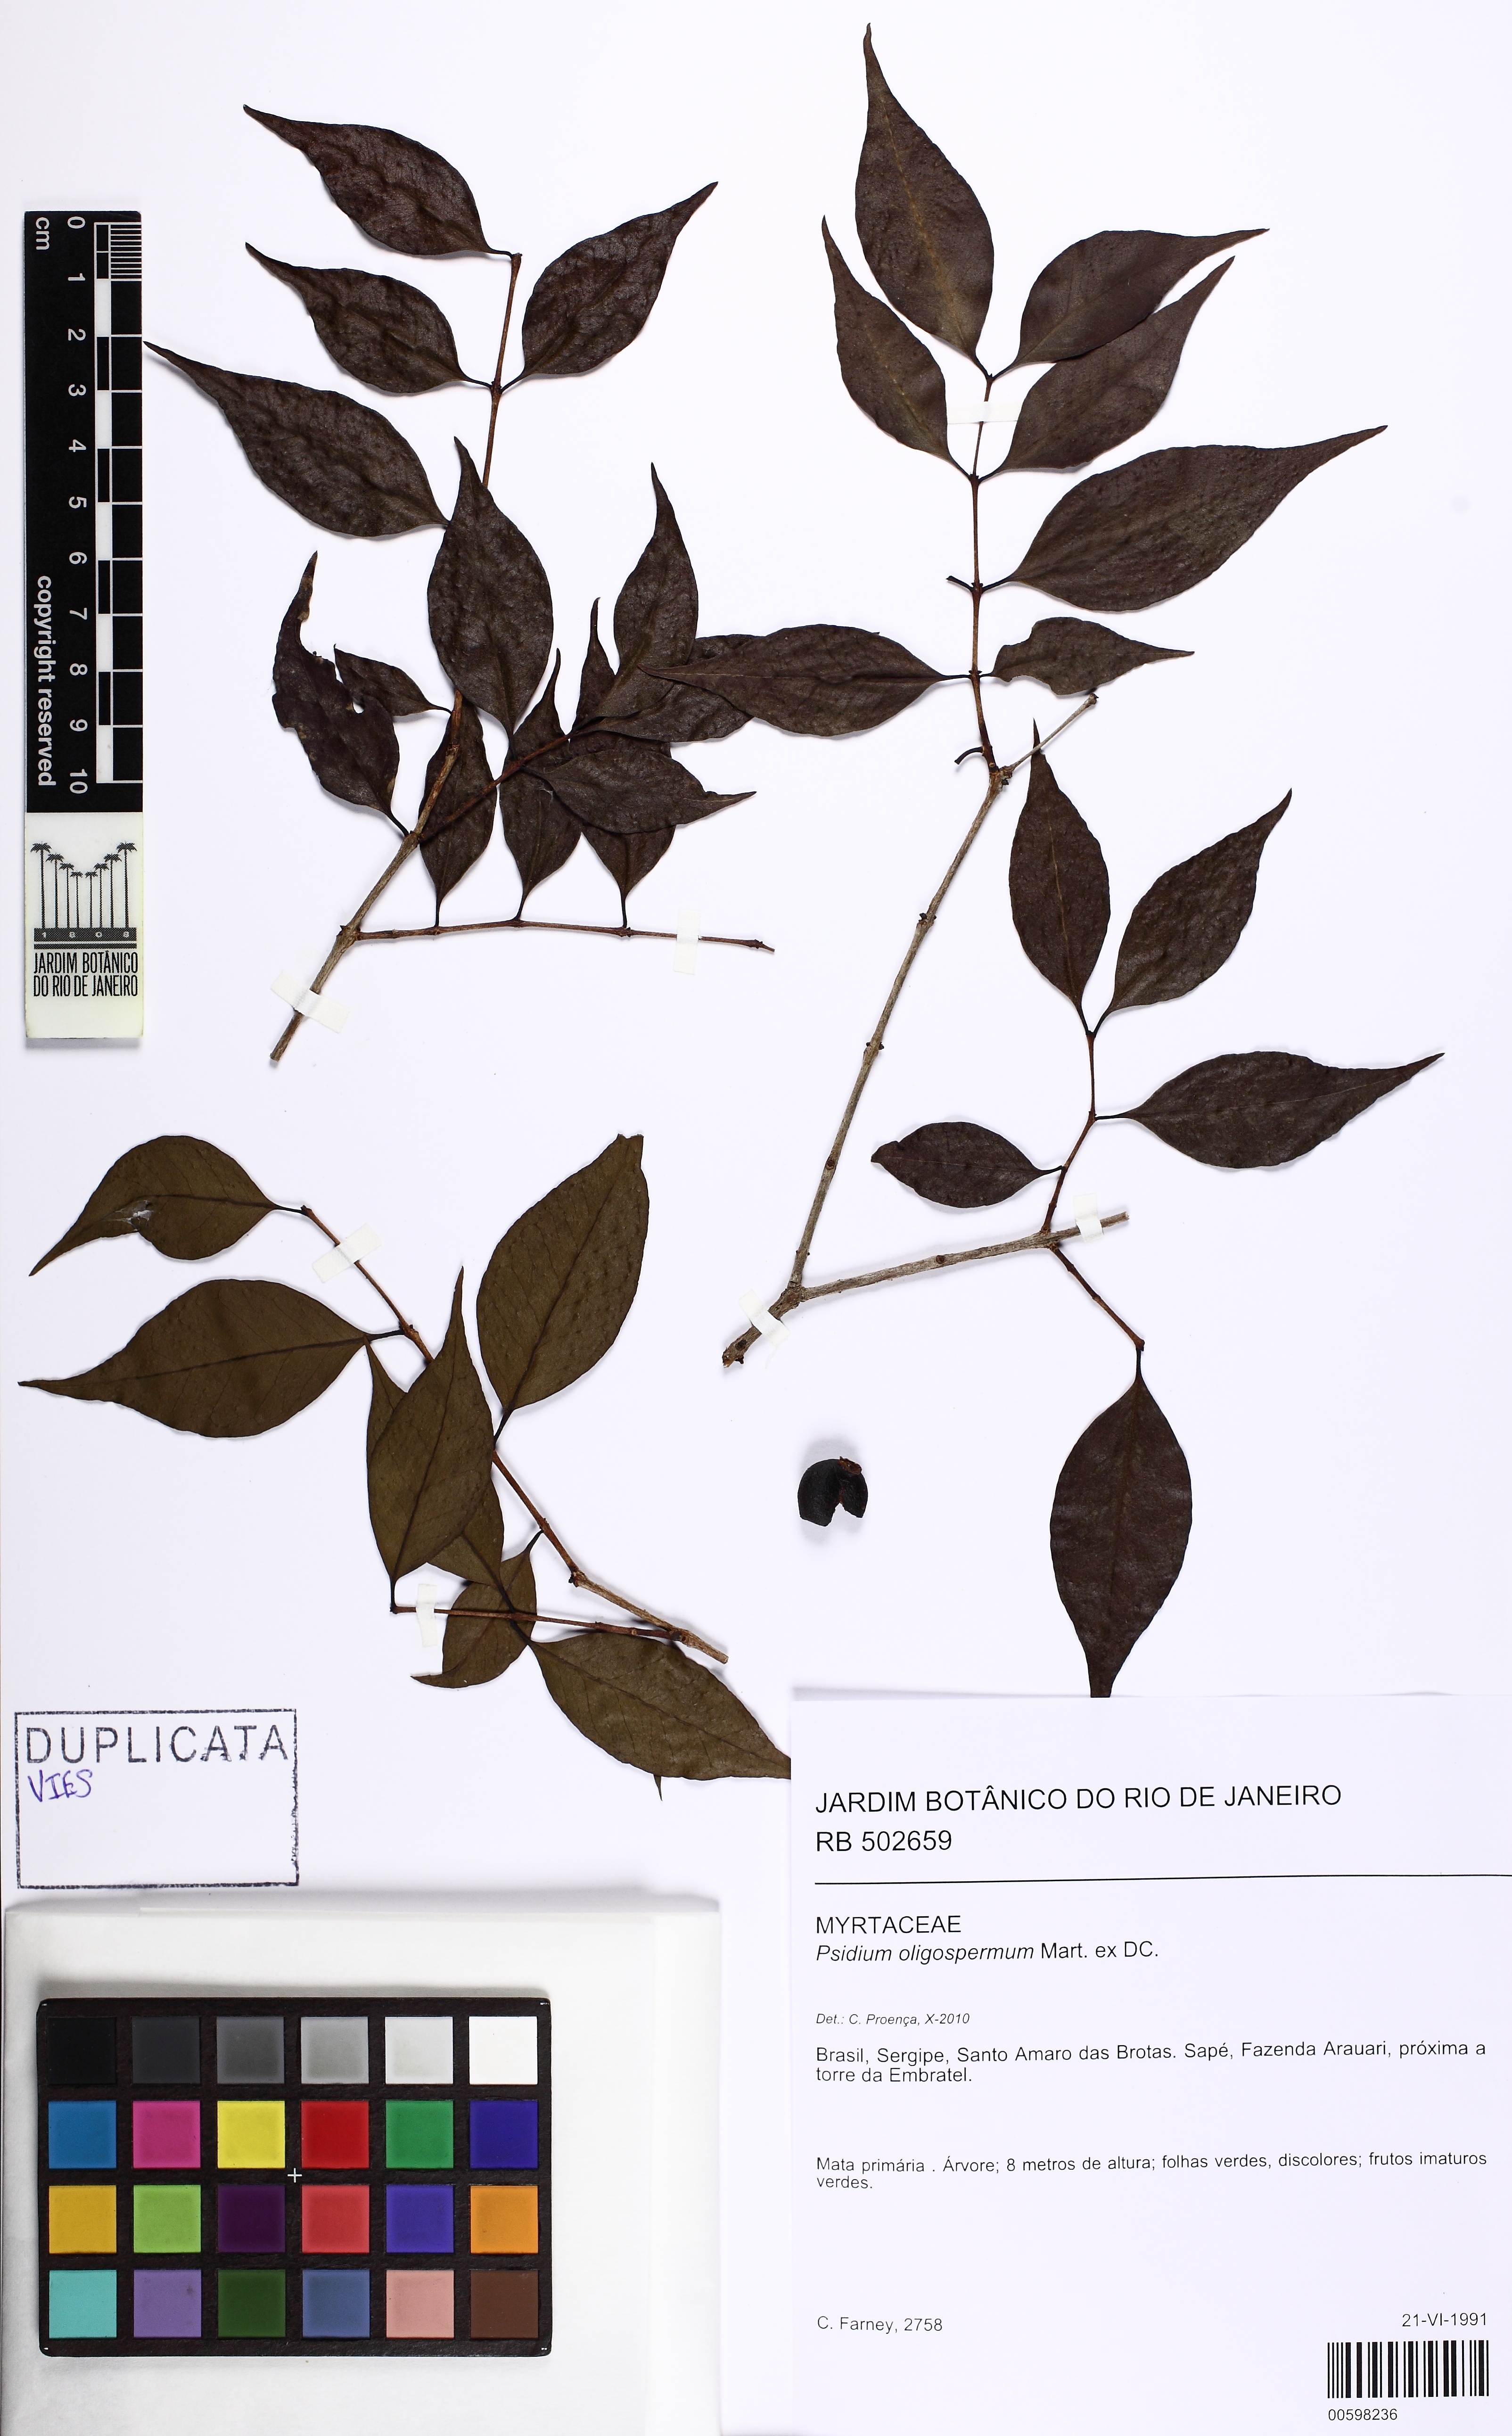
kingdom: Plantae
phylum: Tracheophyta
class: Magnoliopsida
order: Myrtales
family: Myrtaceae
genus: Psidium
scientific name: Psidium oligospermum
